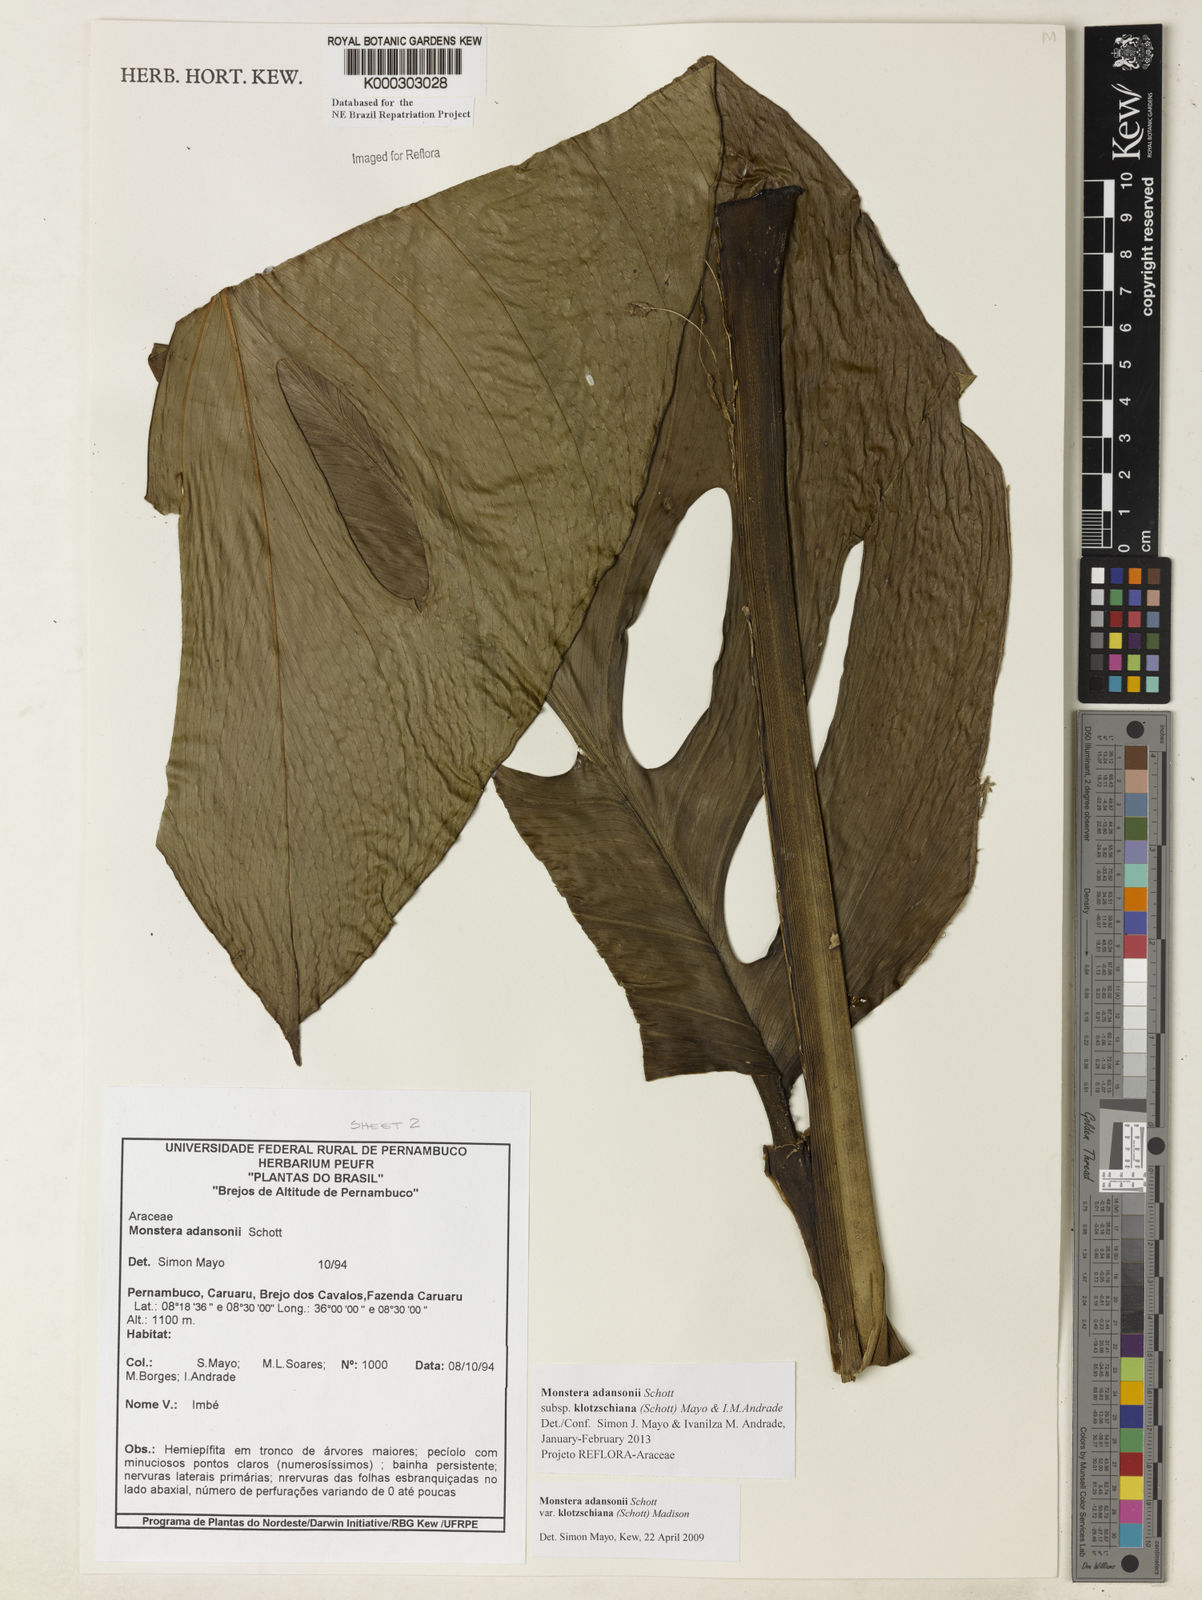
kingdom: Plantae
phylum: Tracheophyta
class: Liliopsida
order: Alismatales
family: Araceae
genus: Monstera
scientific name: Monstera adansonii
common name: Tarovine
